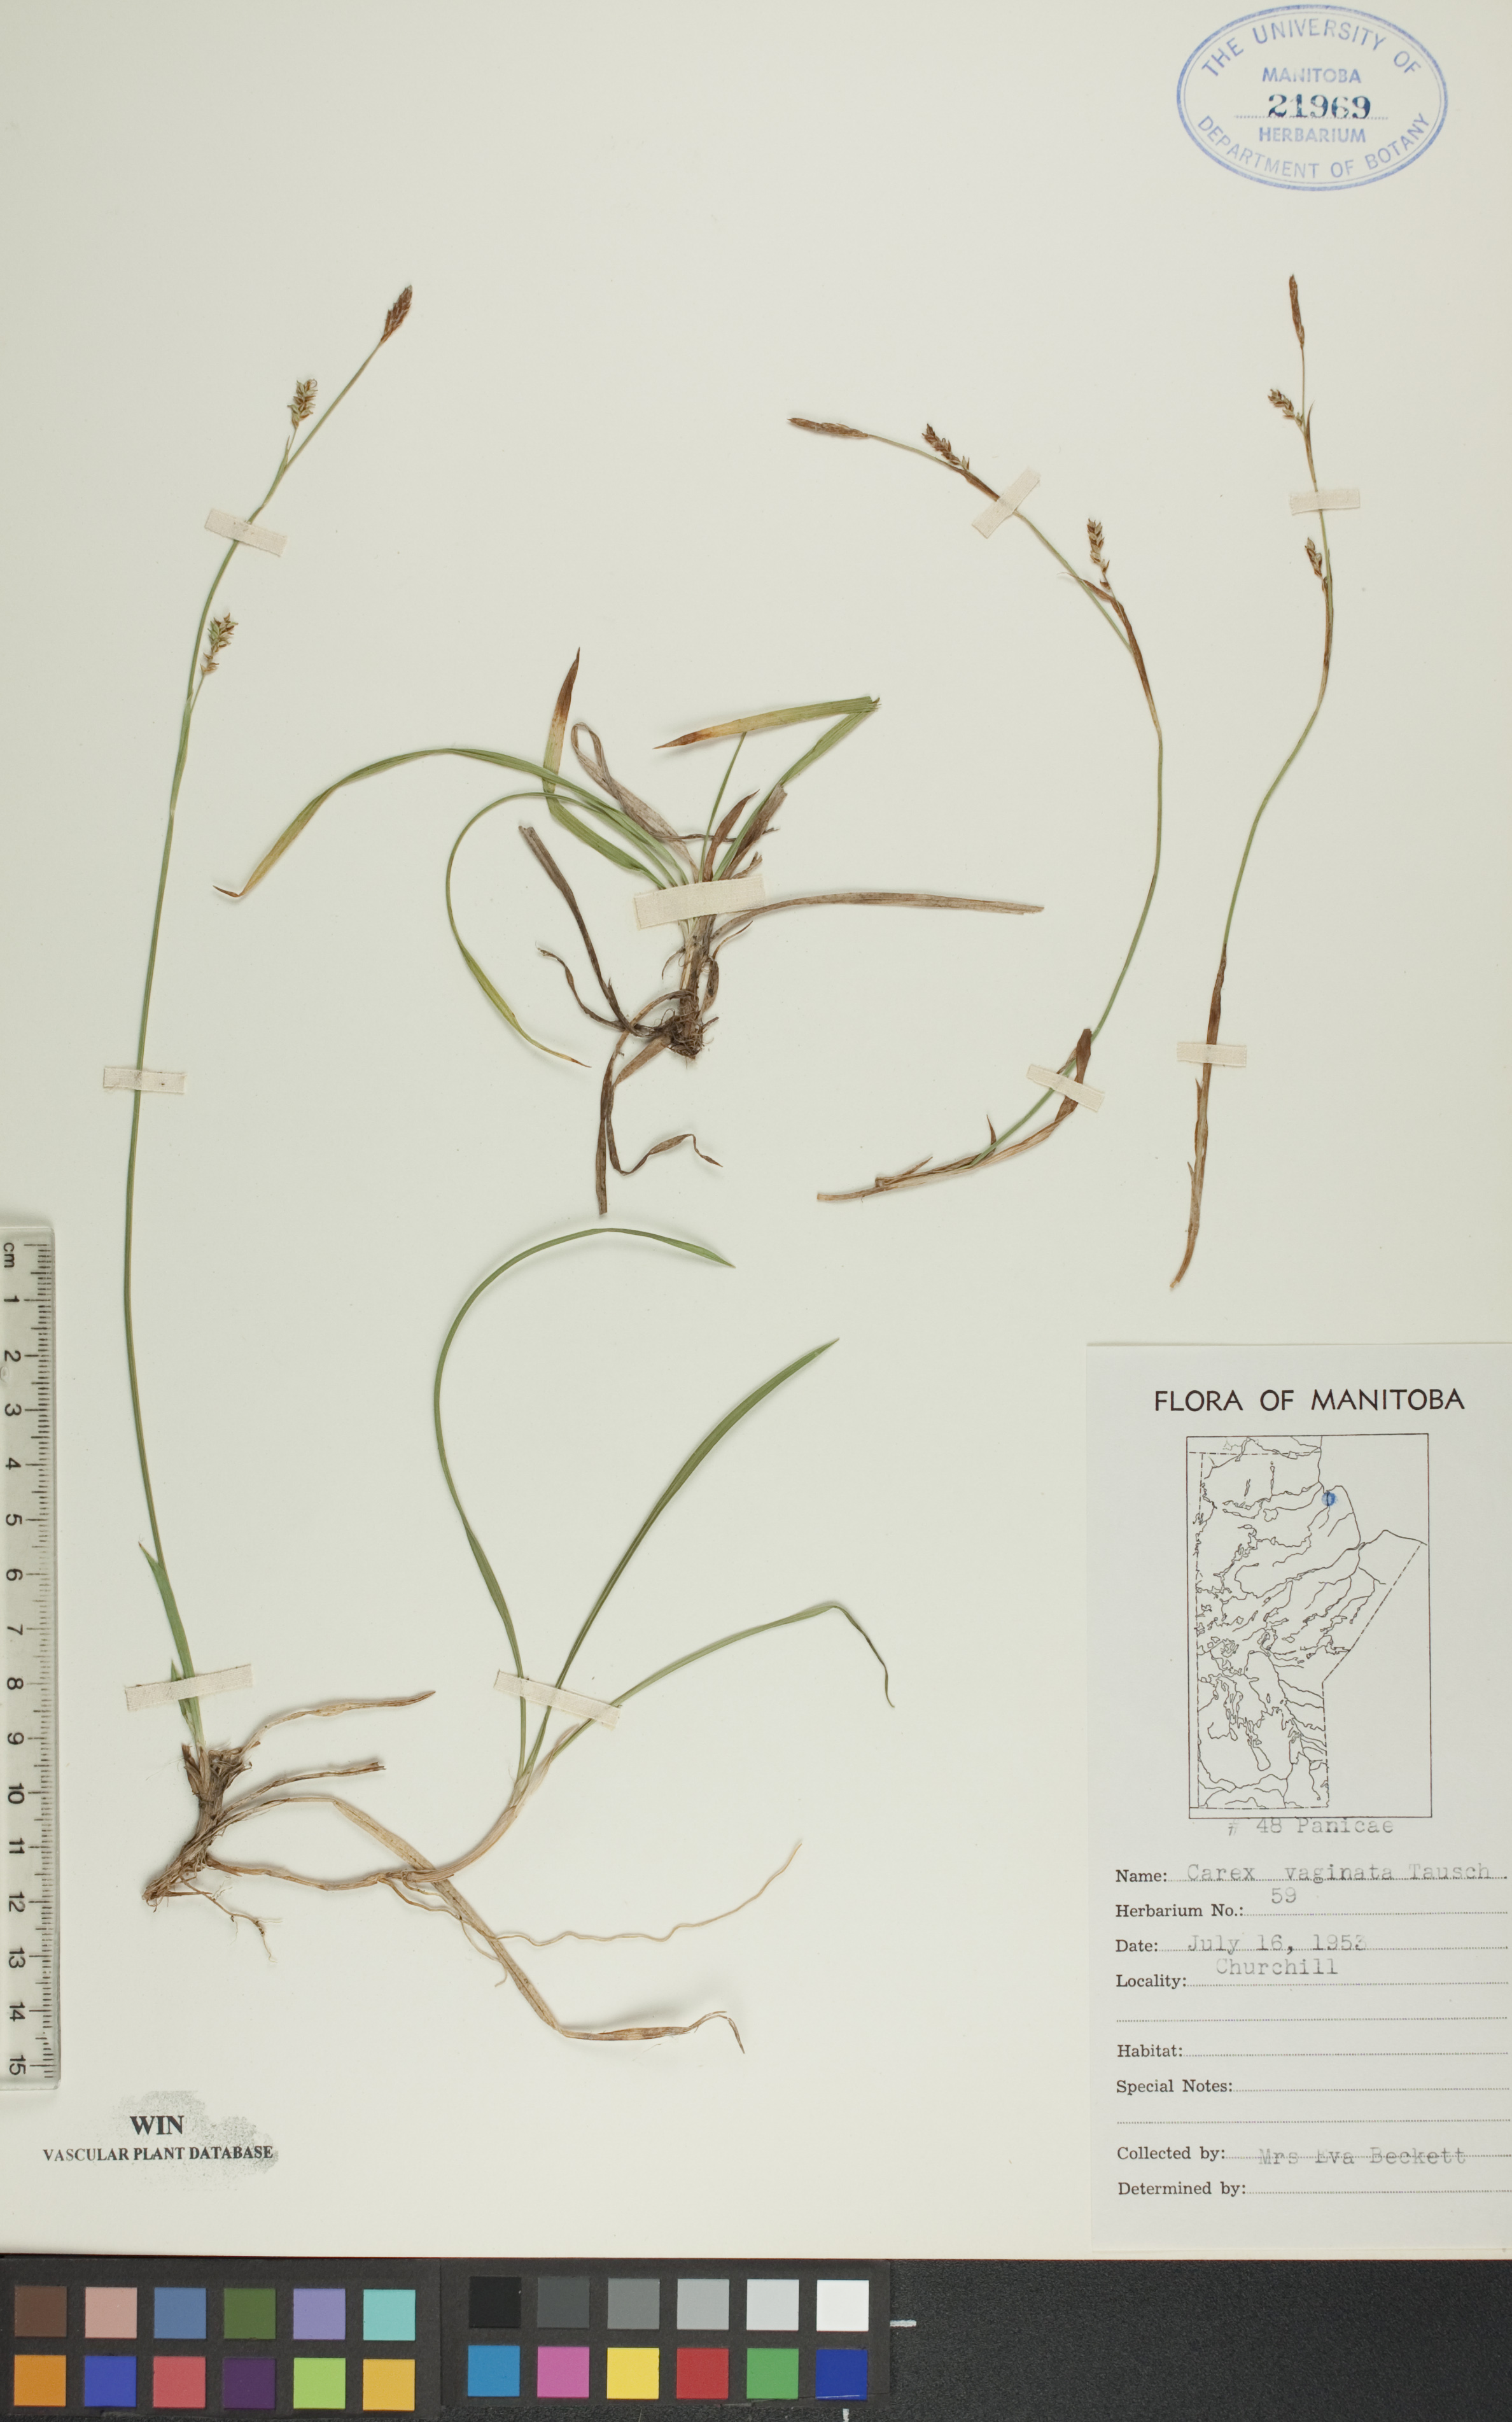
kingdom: Plantae
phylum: Tracheophyta
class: Liliopsida
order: Poales
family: Cyperaceae
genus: Carex
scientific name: Carex vaginata
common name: Sheathed sedge
